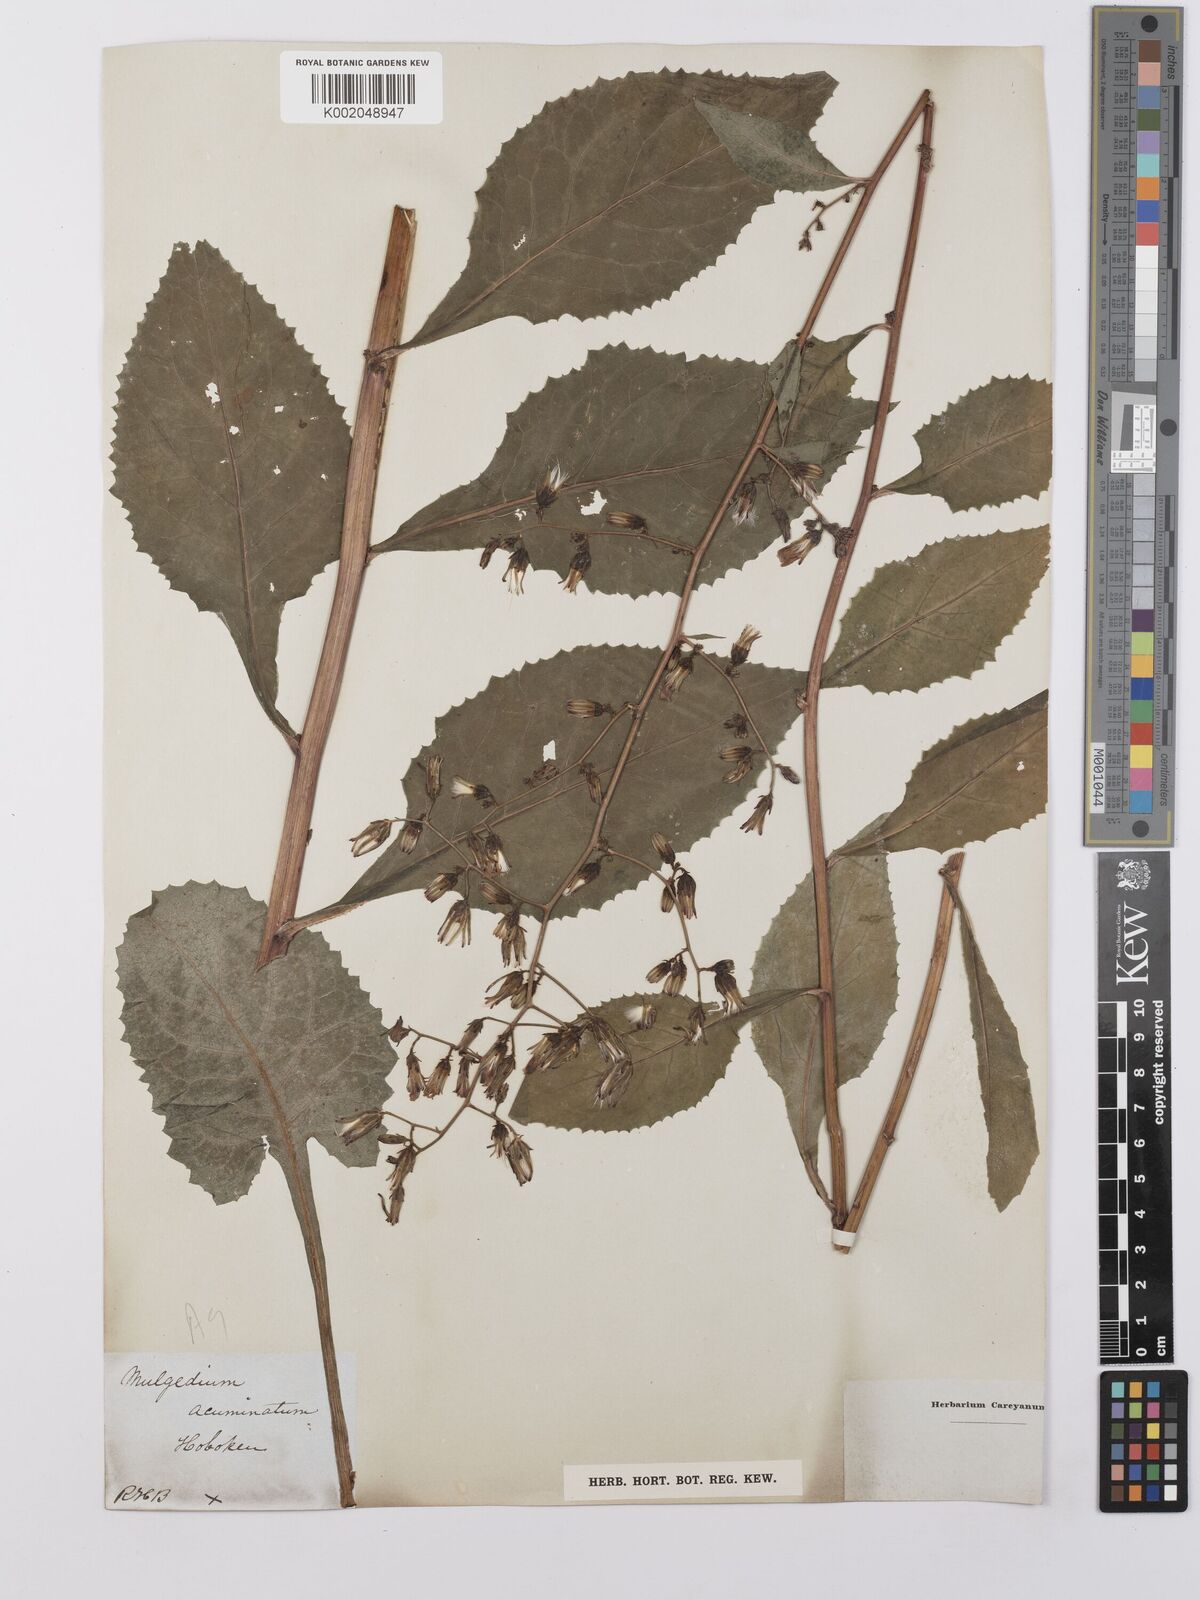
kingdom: Plantae
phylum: Tracheophyta
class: Magnoliopsida
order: Asterales
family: Asteraceae
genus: Lactuca
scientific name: Lactuca floridana
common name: Woodland lettuce
